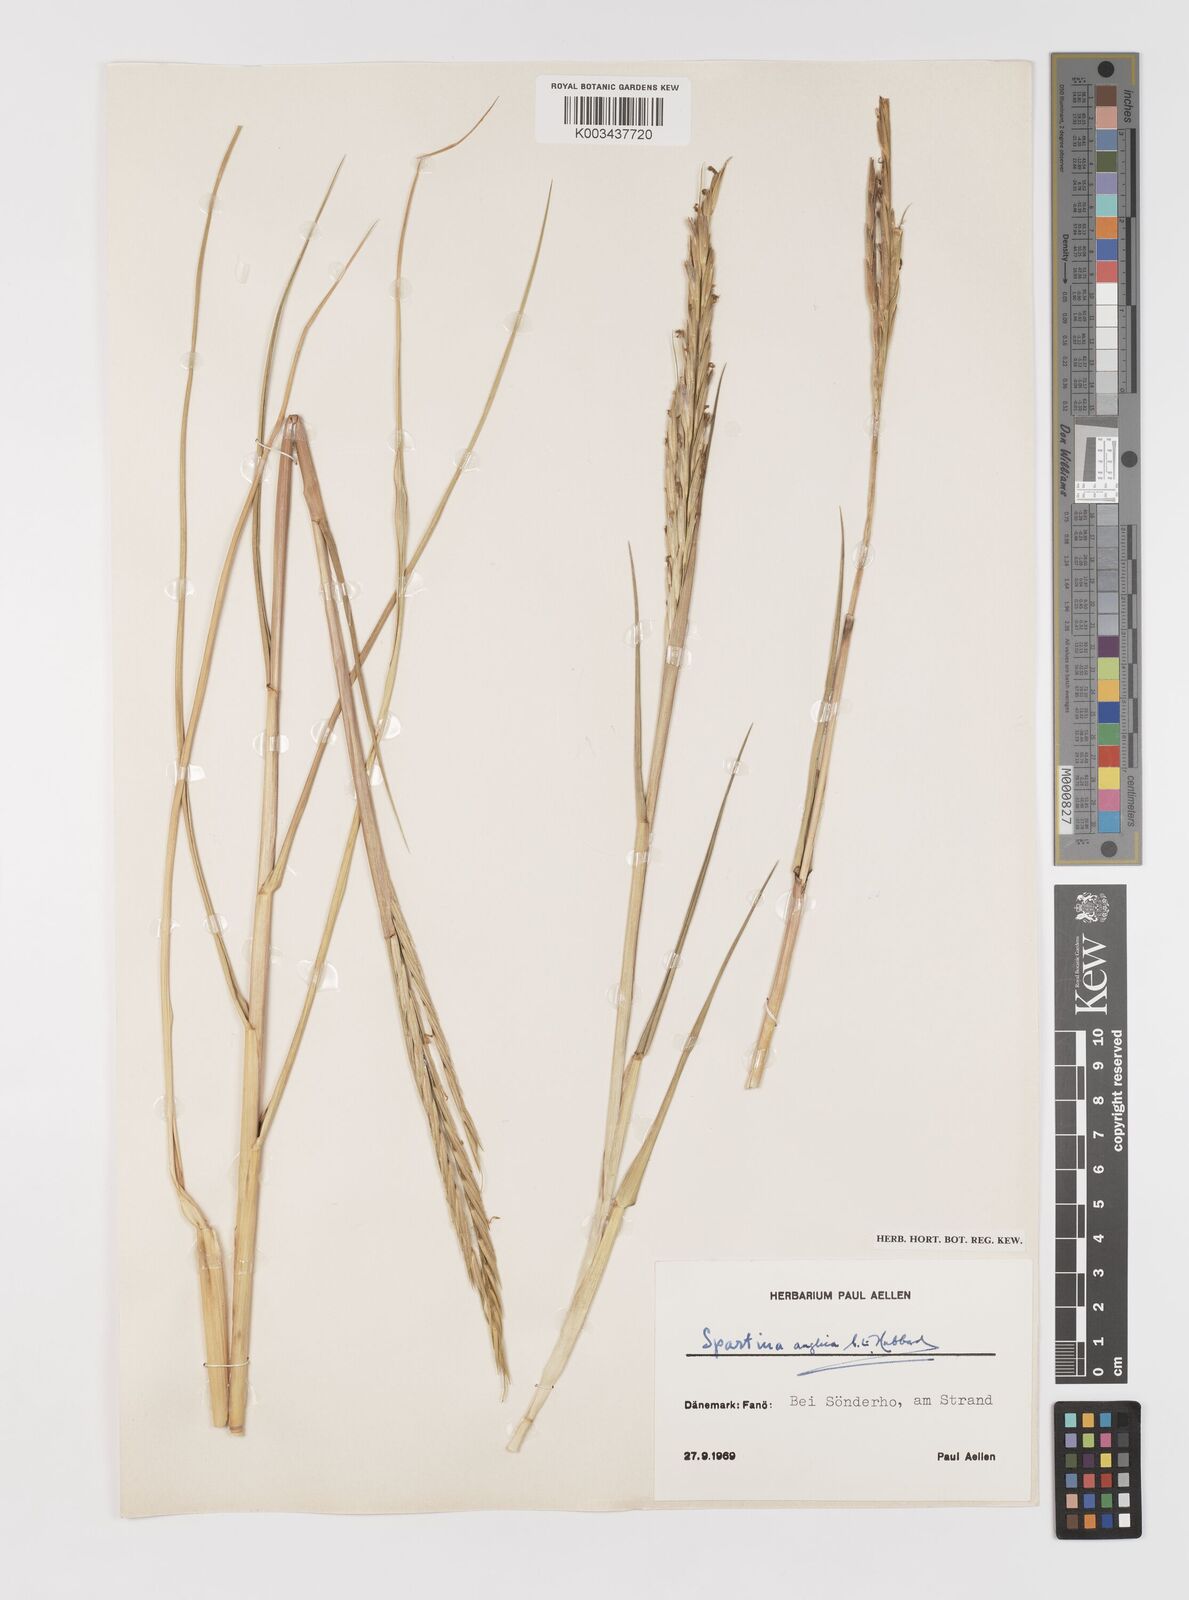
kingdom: Plantae
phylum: Tracheophyta
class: Liliopsida
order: Poales
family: Poaceae
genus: Sporobolus
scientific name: Sporobolus anglicus
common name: English cordgrass
